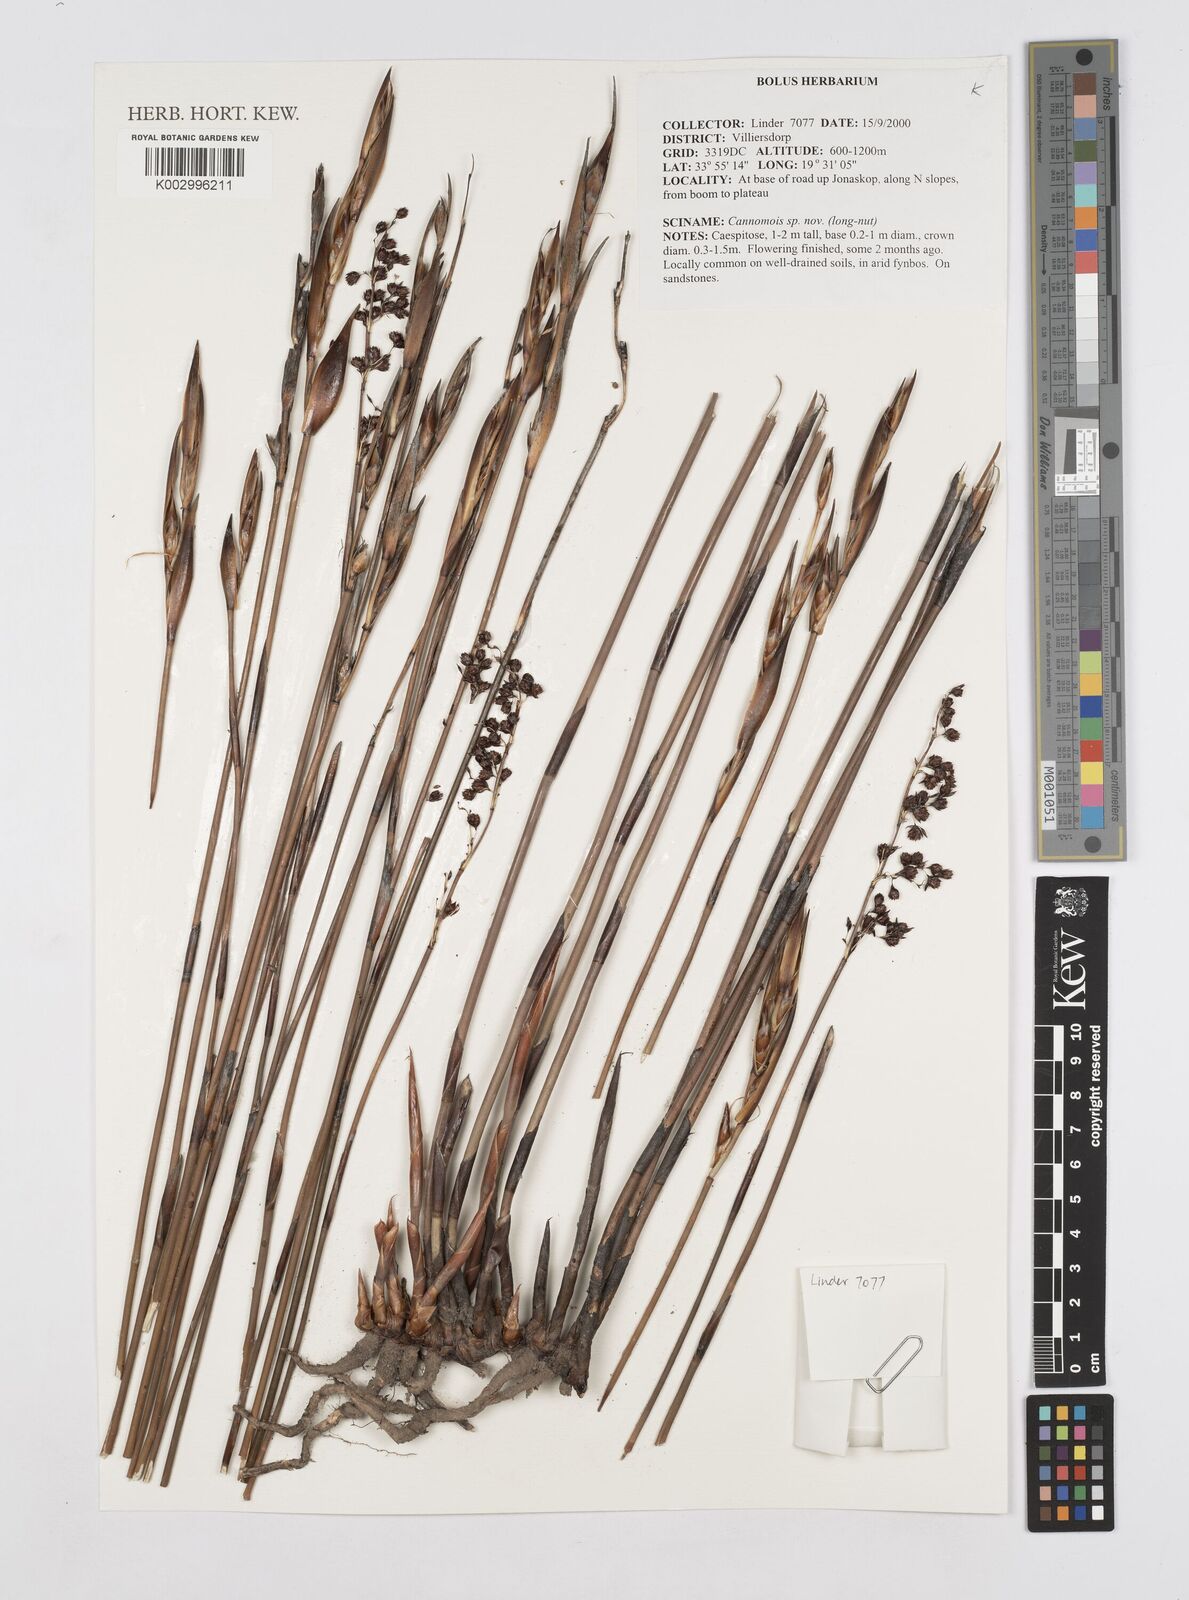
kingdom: Plantae
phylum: Tracheophyta
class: Liliopsida
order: Poales
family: Restionaceae
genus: Cannomois
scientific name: Cannomois
